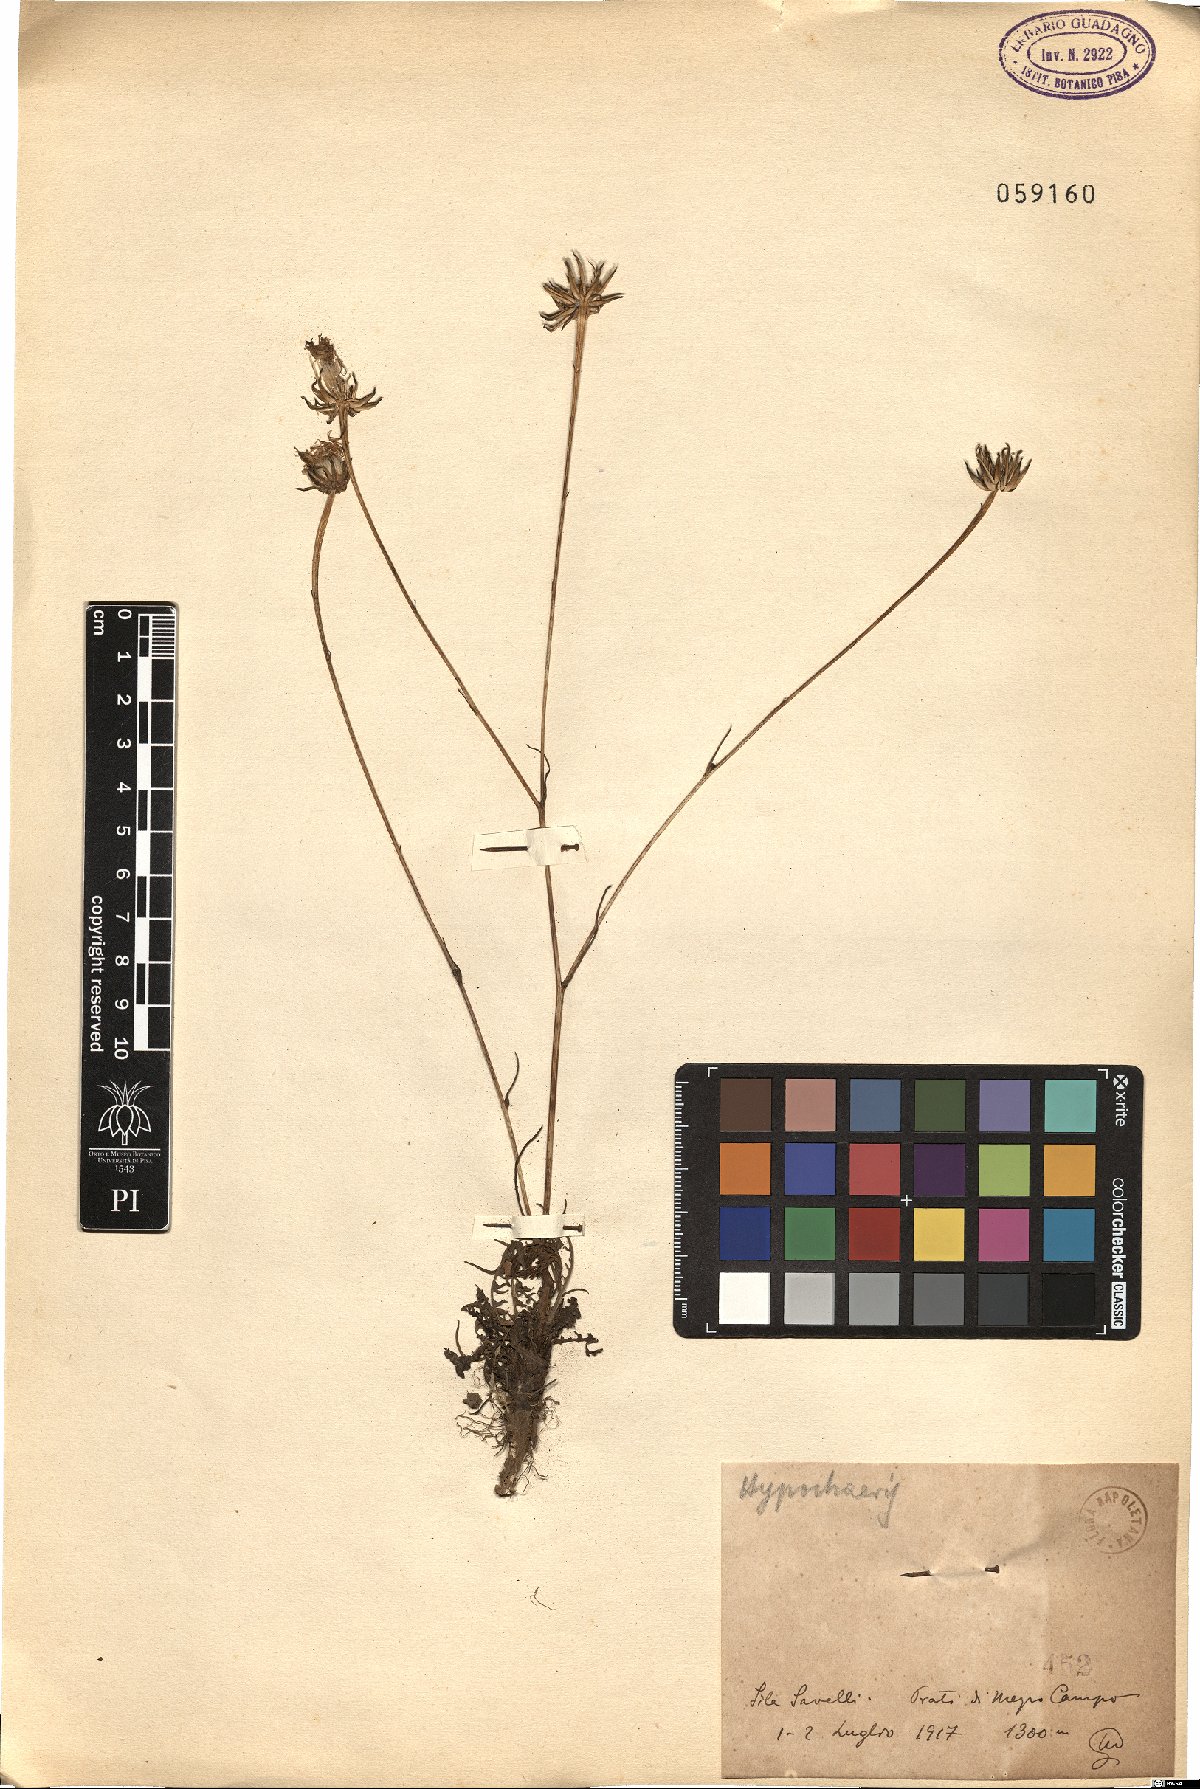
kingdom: Plantae
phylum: Tracheophyta
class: Magnoliopsida
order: Asterales
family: Asteraceae
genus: Hypochaeris
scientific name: Hypochaeris
